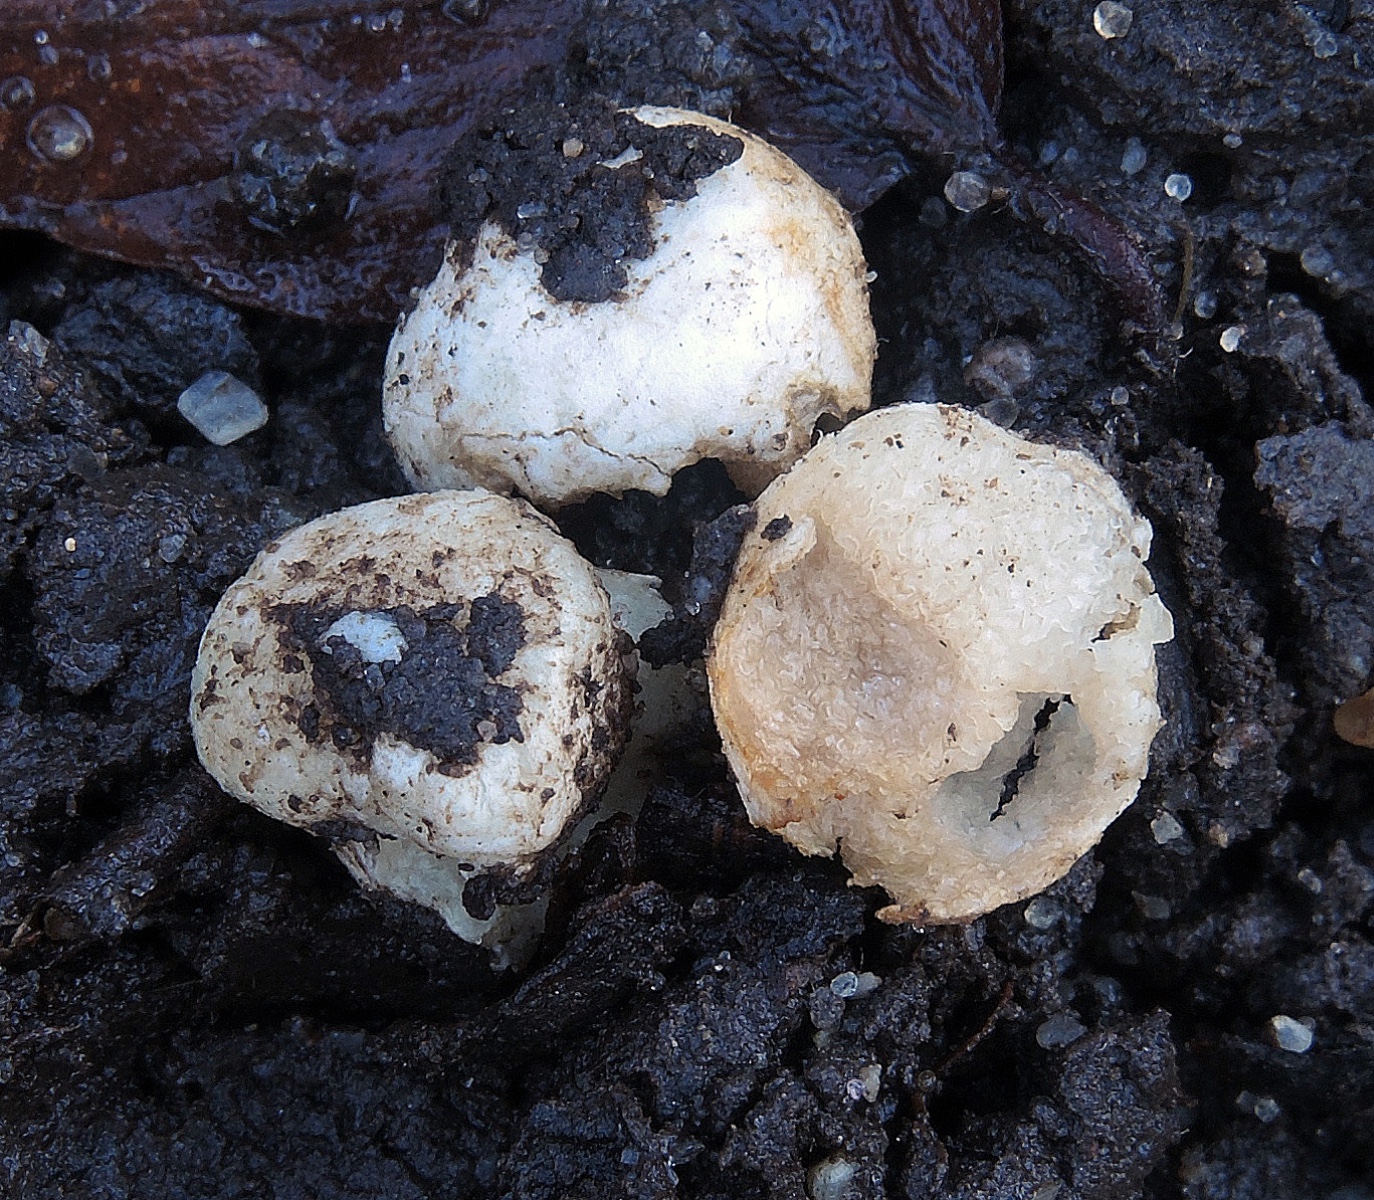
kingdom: Fungi
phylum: Basidiomycota
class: Agaricomycetes
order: Agaricales
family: Hymenogastraceae
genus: Hymenogaster
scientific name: Hymenogaster luteus
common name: gulkødet knoldtrøffel
